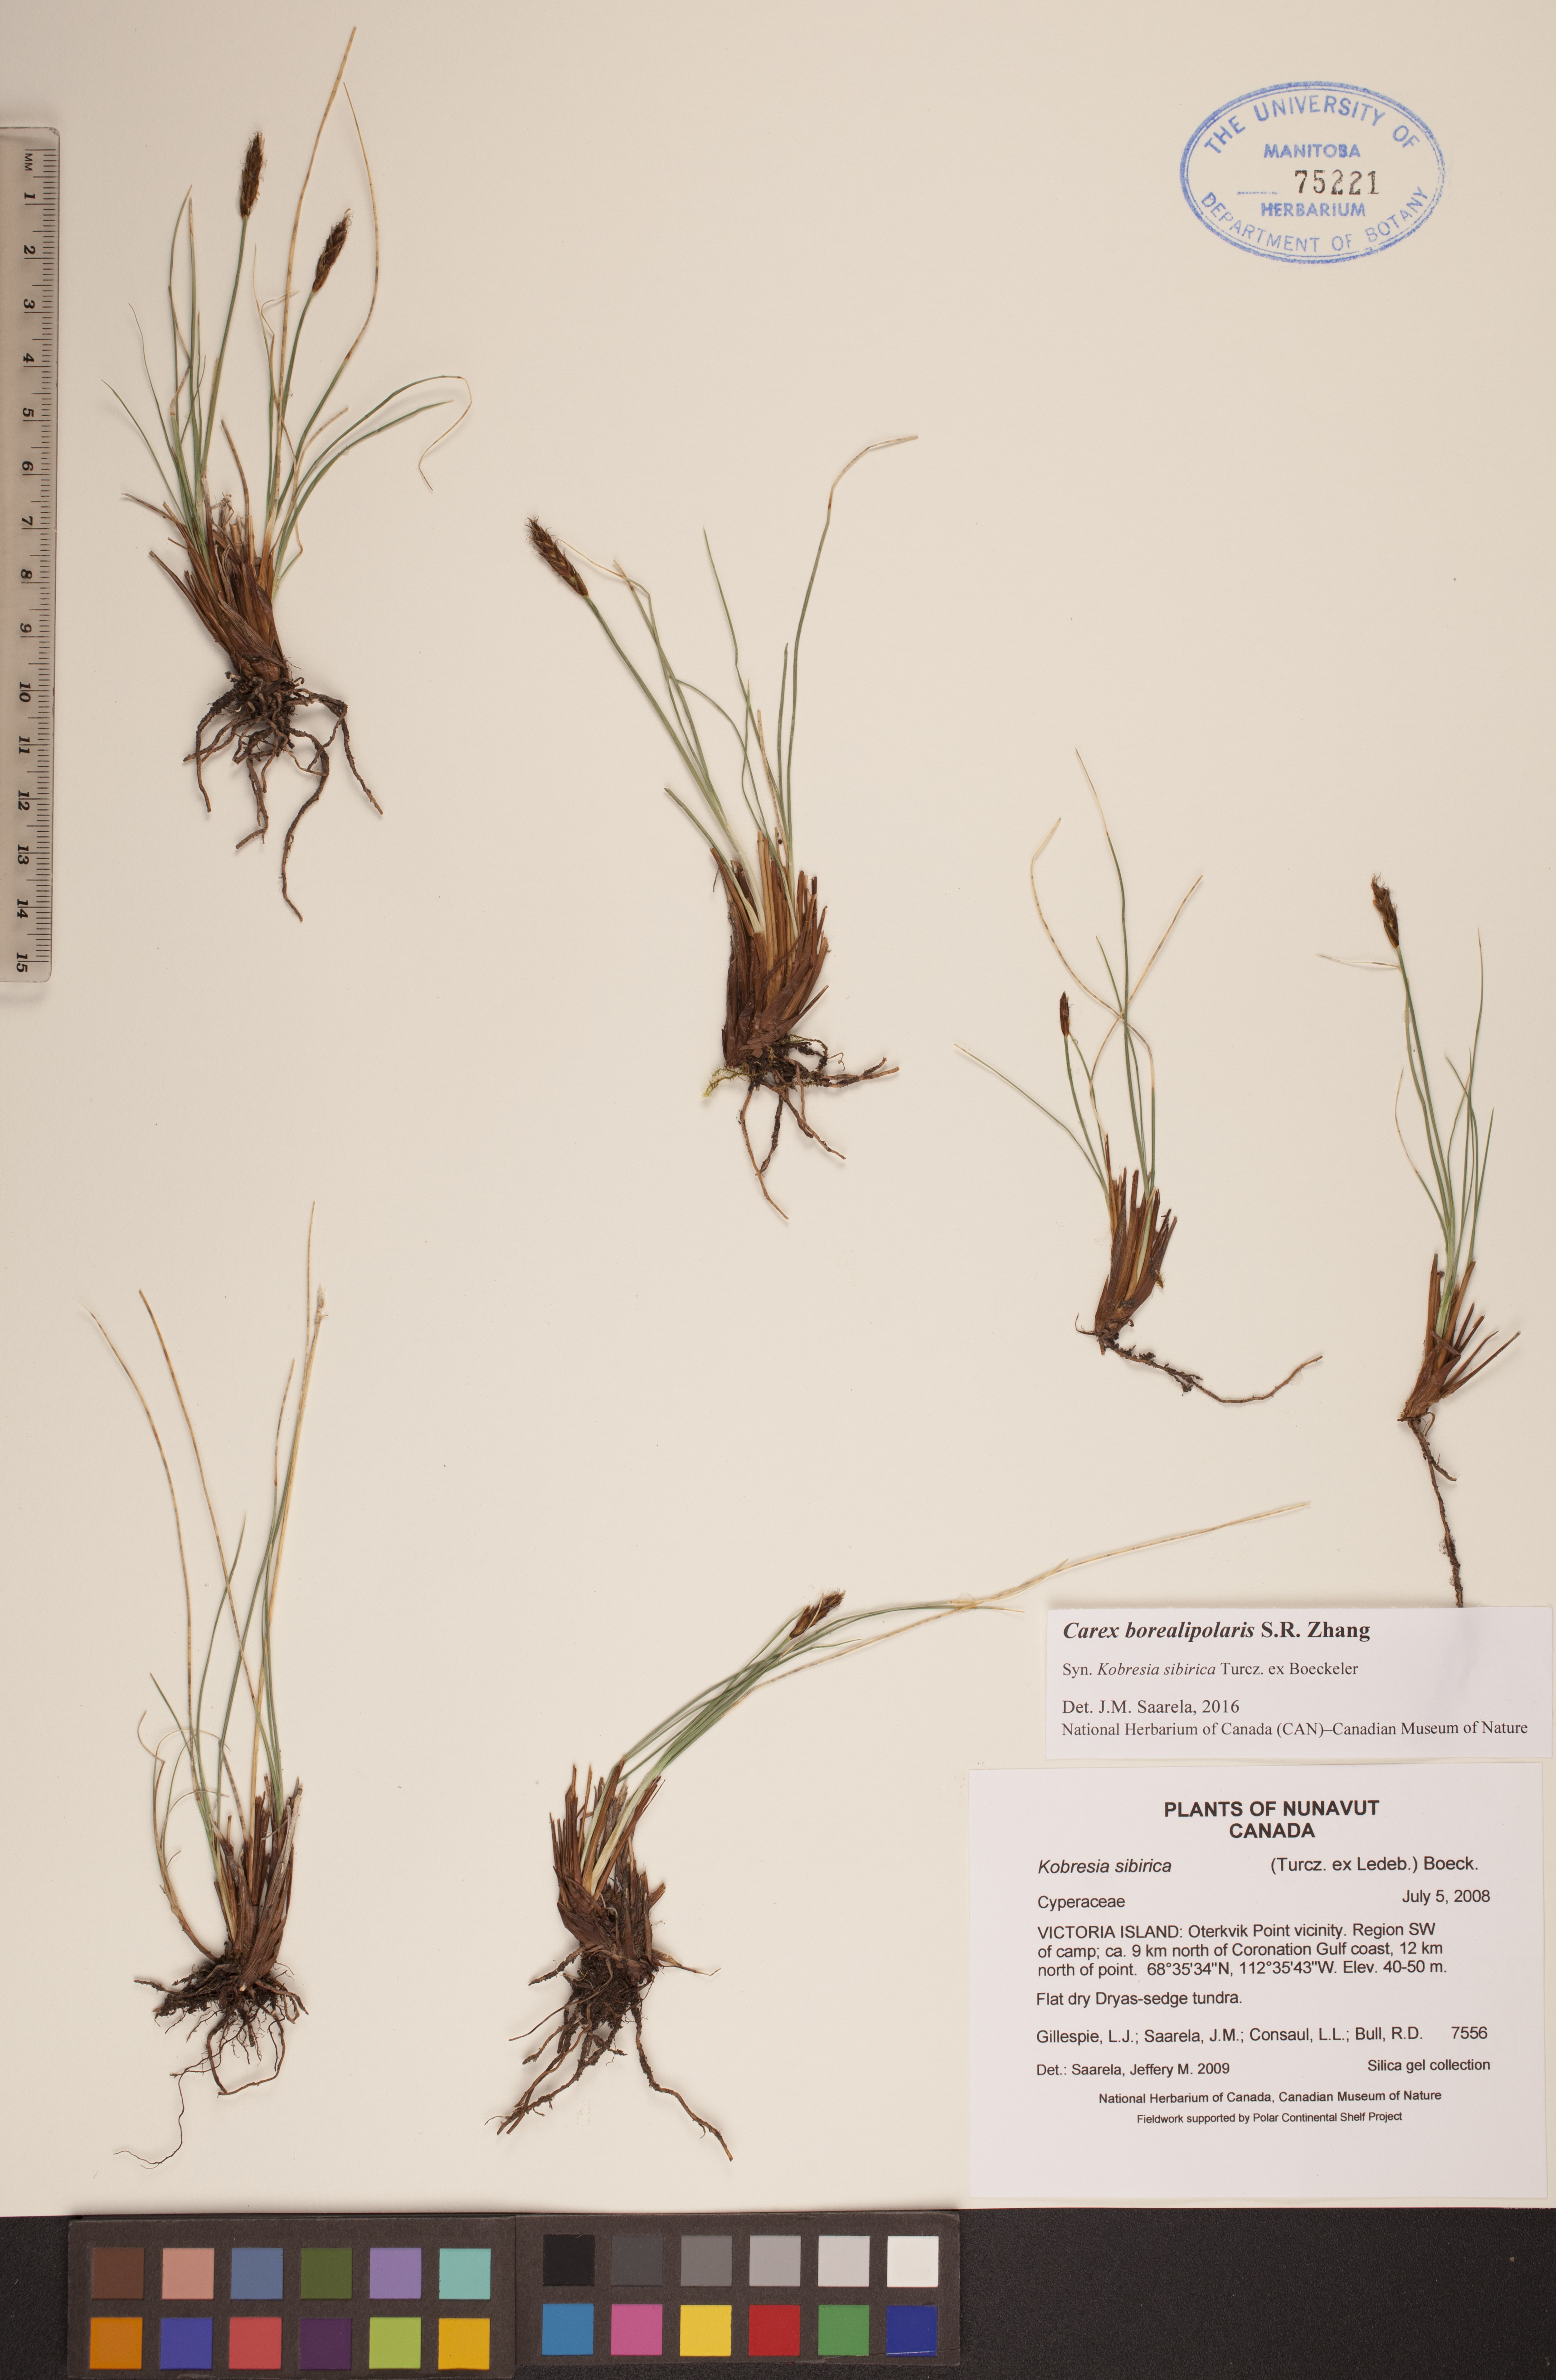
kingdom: Plantae
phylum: Tracheophyta
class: Liliopsida
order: Poales
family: Cyperaceae
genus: Carex
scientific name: Carex borealipolaris
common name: Siberian bog sedge
